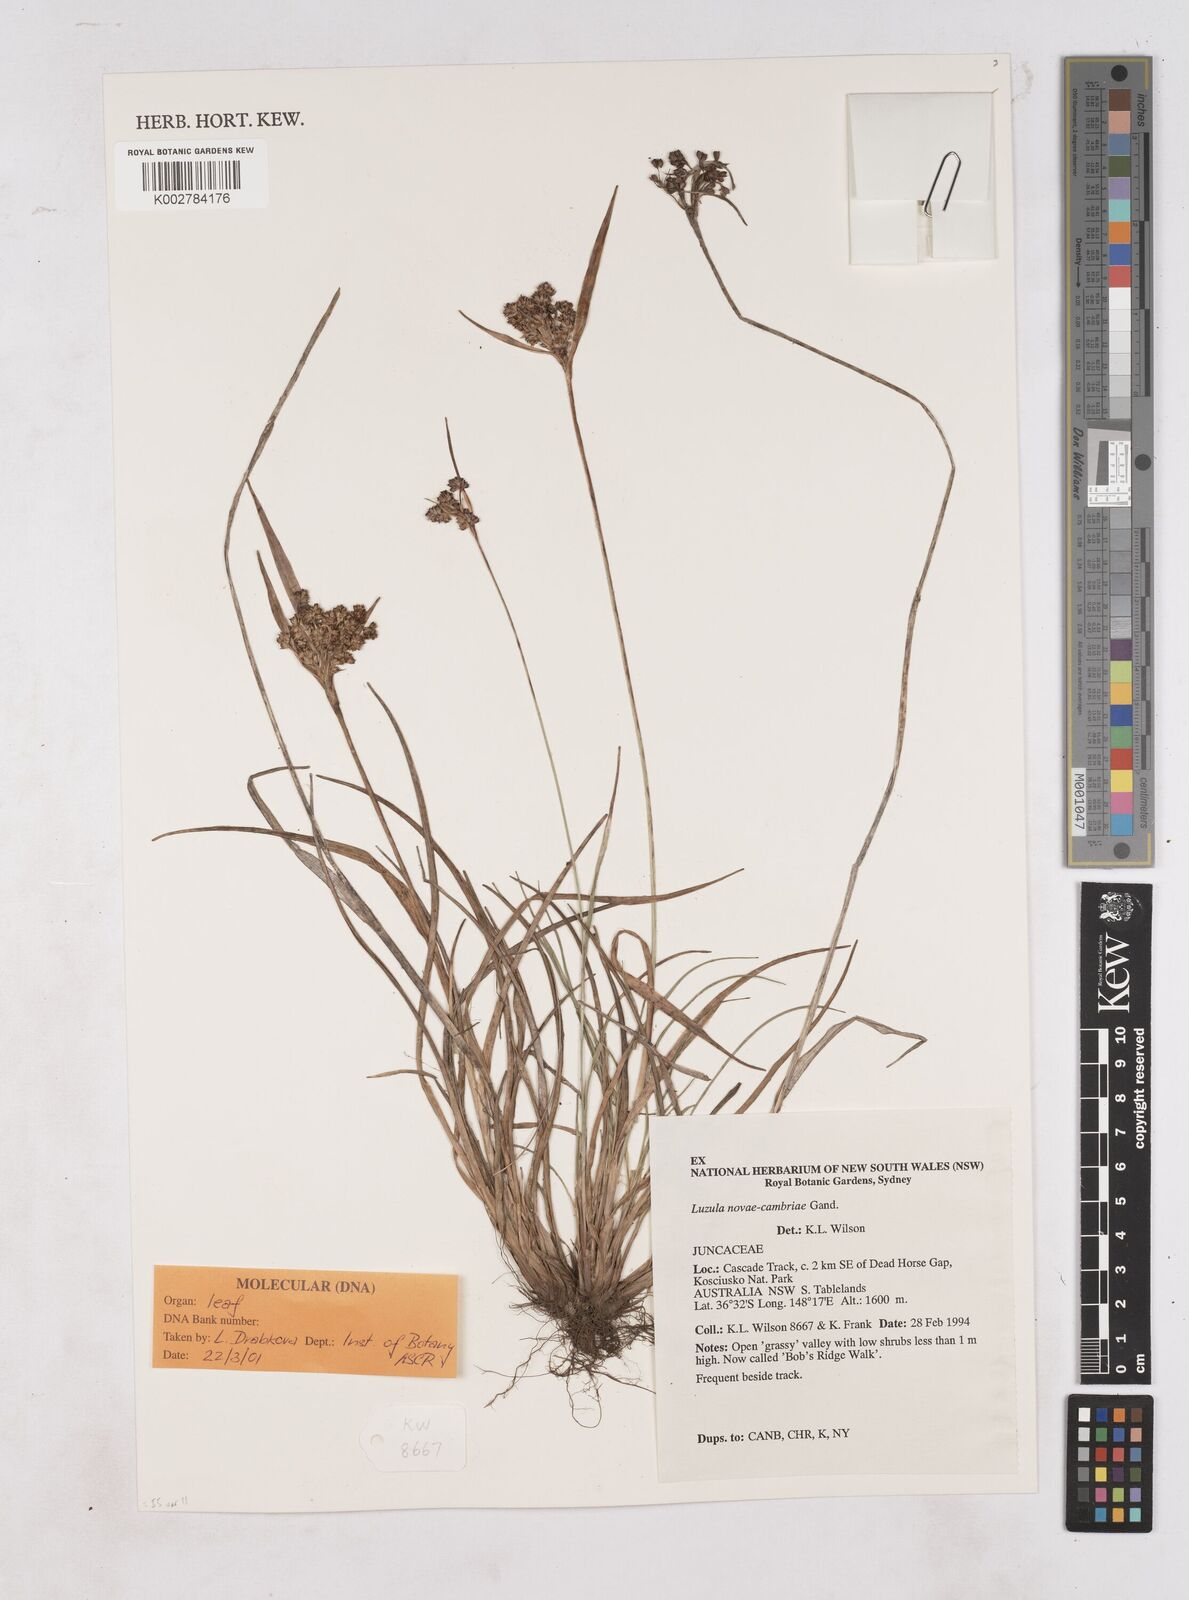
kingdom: Plantae
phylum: Tracheophyta
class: Liliopsida
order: Poales
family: Juncaceae
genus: Luzula
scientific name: Luzula campestris
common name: Field wood-rush
